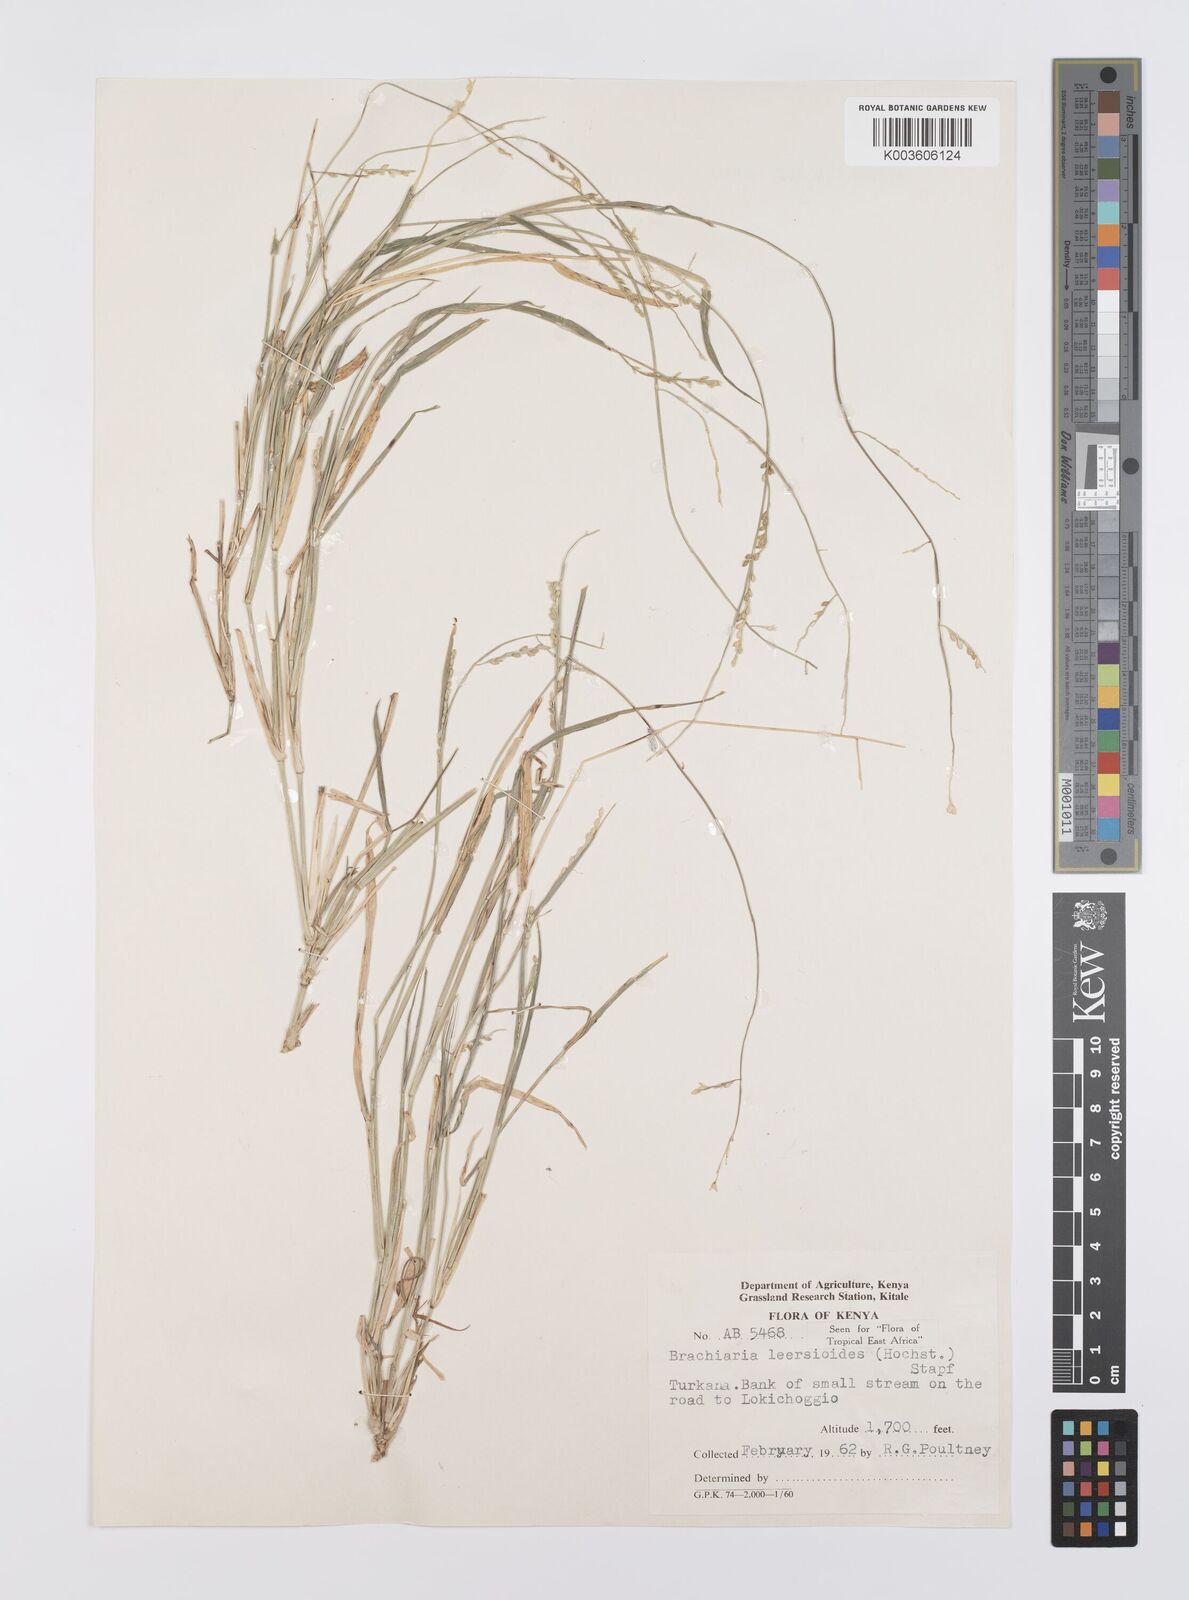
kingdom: Plantae
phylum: Tracheophyta
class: Liliopsida
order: Poales
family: Poaceae
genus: Urochloa
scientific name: Urochloa leersioides
